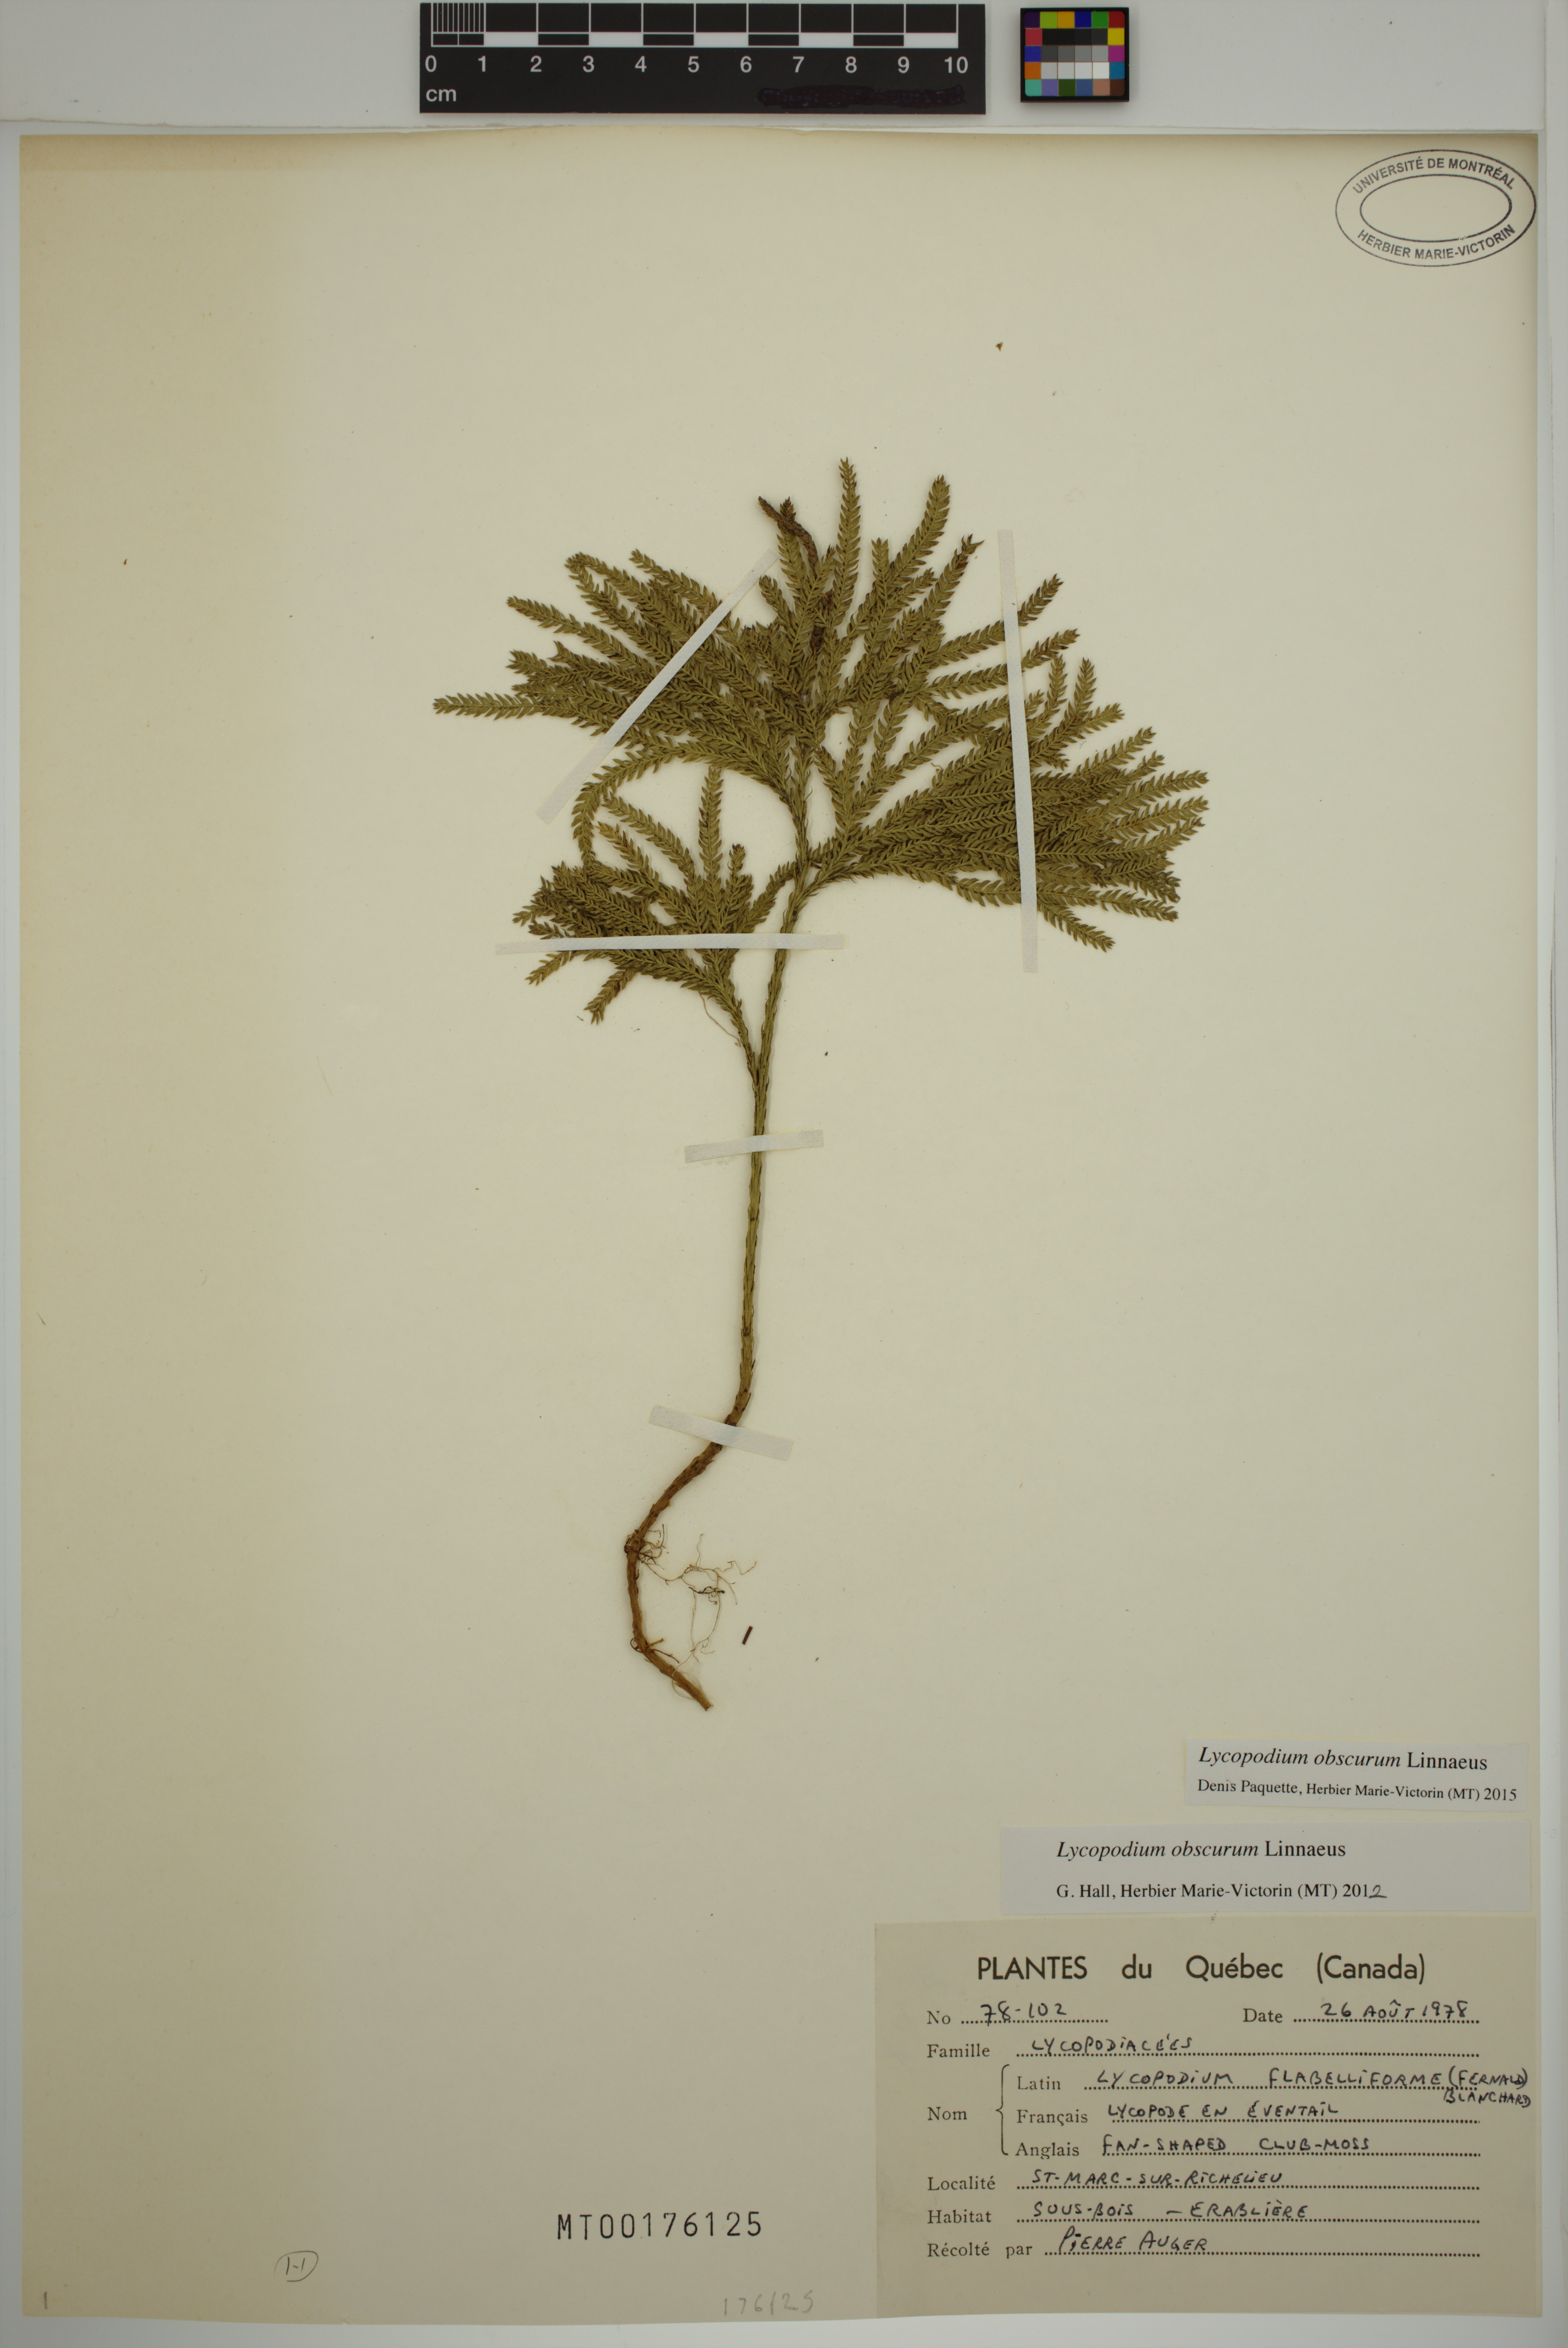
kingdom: Plantae
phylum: Tracheophyta
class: Lycopodiopsida
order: Lycopodiales
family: Lycopodiaceae
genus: Dendrolycopodium
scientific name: Dendrolycopodium obscurum
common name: Common ground-pine
